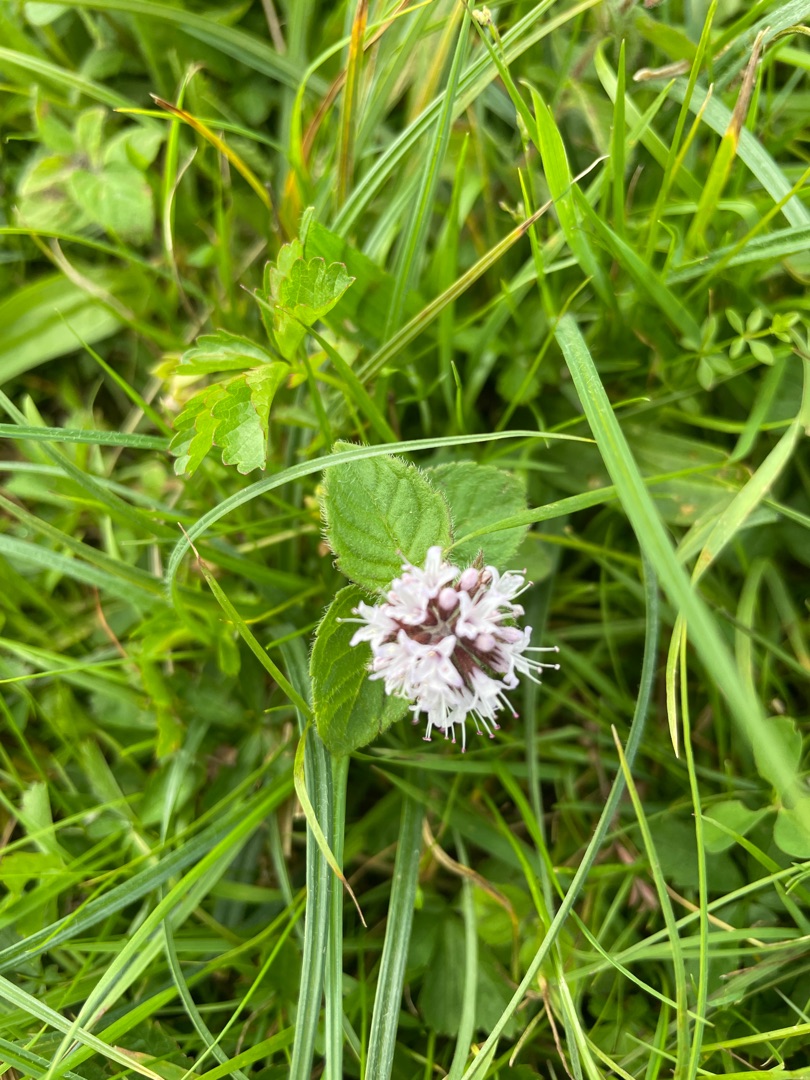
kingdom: Plantae
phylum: Tracheophyta
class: Magnoliopsida
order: Lamiales
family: Lamiaceae
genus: Mentha
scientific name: Mentha aquatica
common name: Vand-mynte
